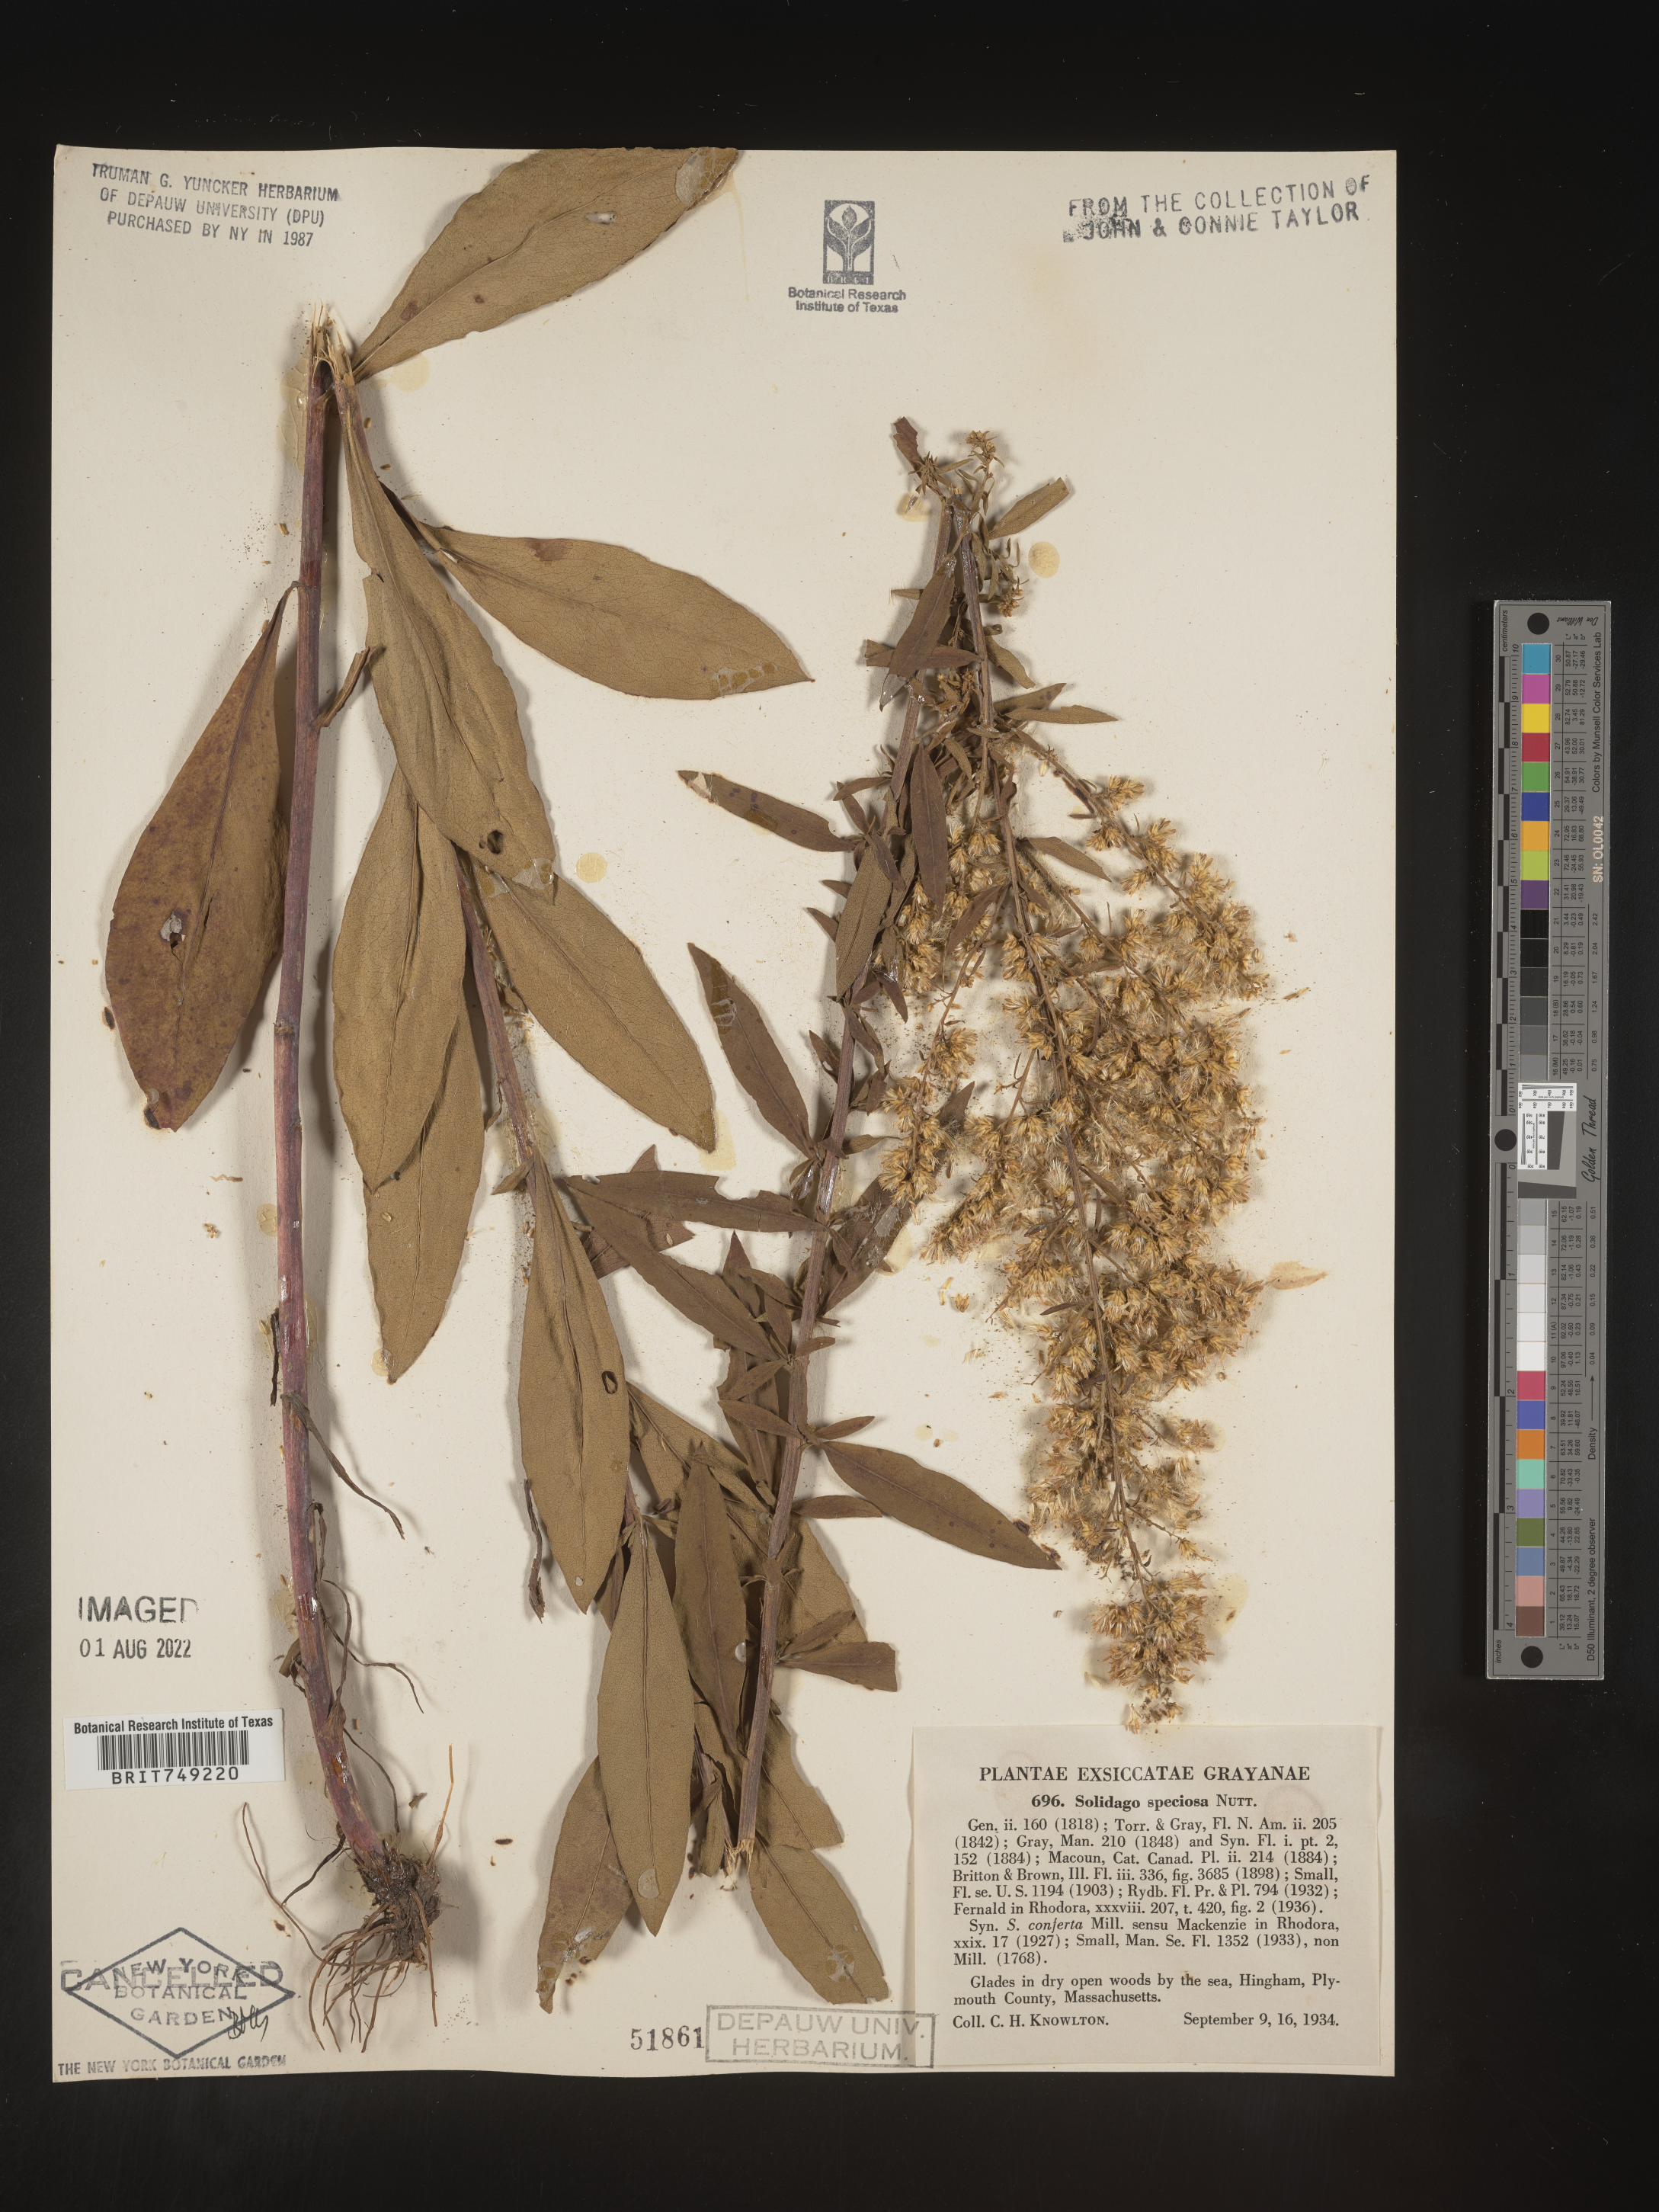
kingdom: Plantae
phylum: Tracheophyta
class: Magnoliopsida
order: Asterales
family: Asteraceae
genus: Solidago
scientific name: Solidago speciosa
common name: Showy goldenrod
